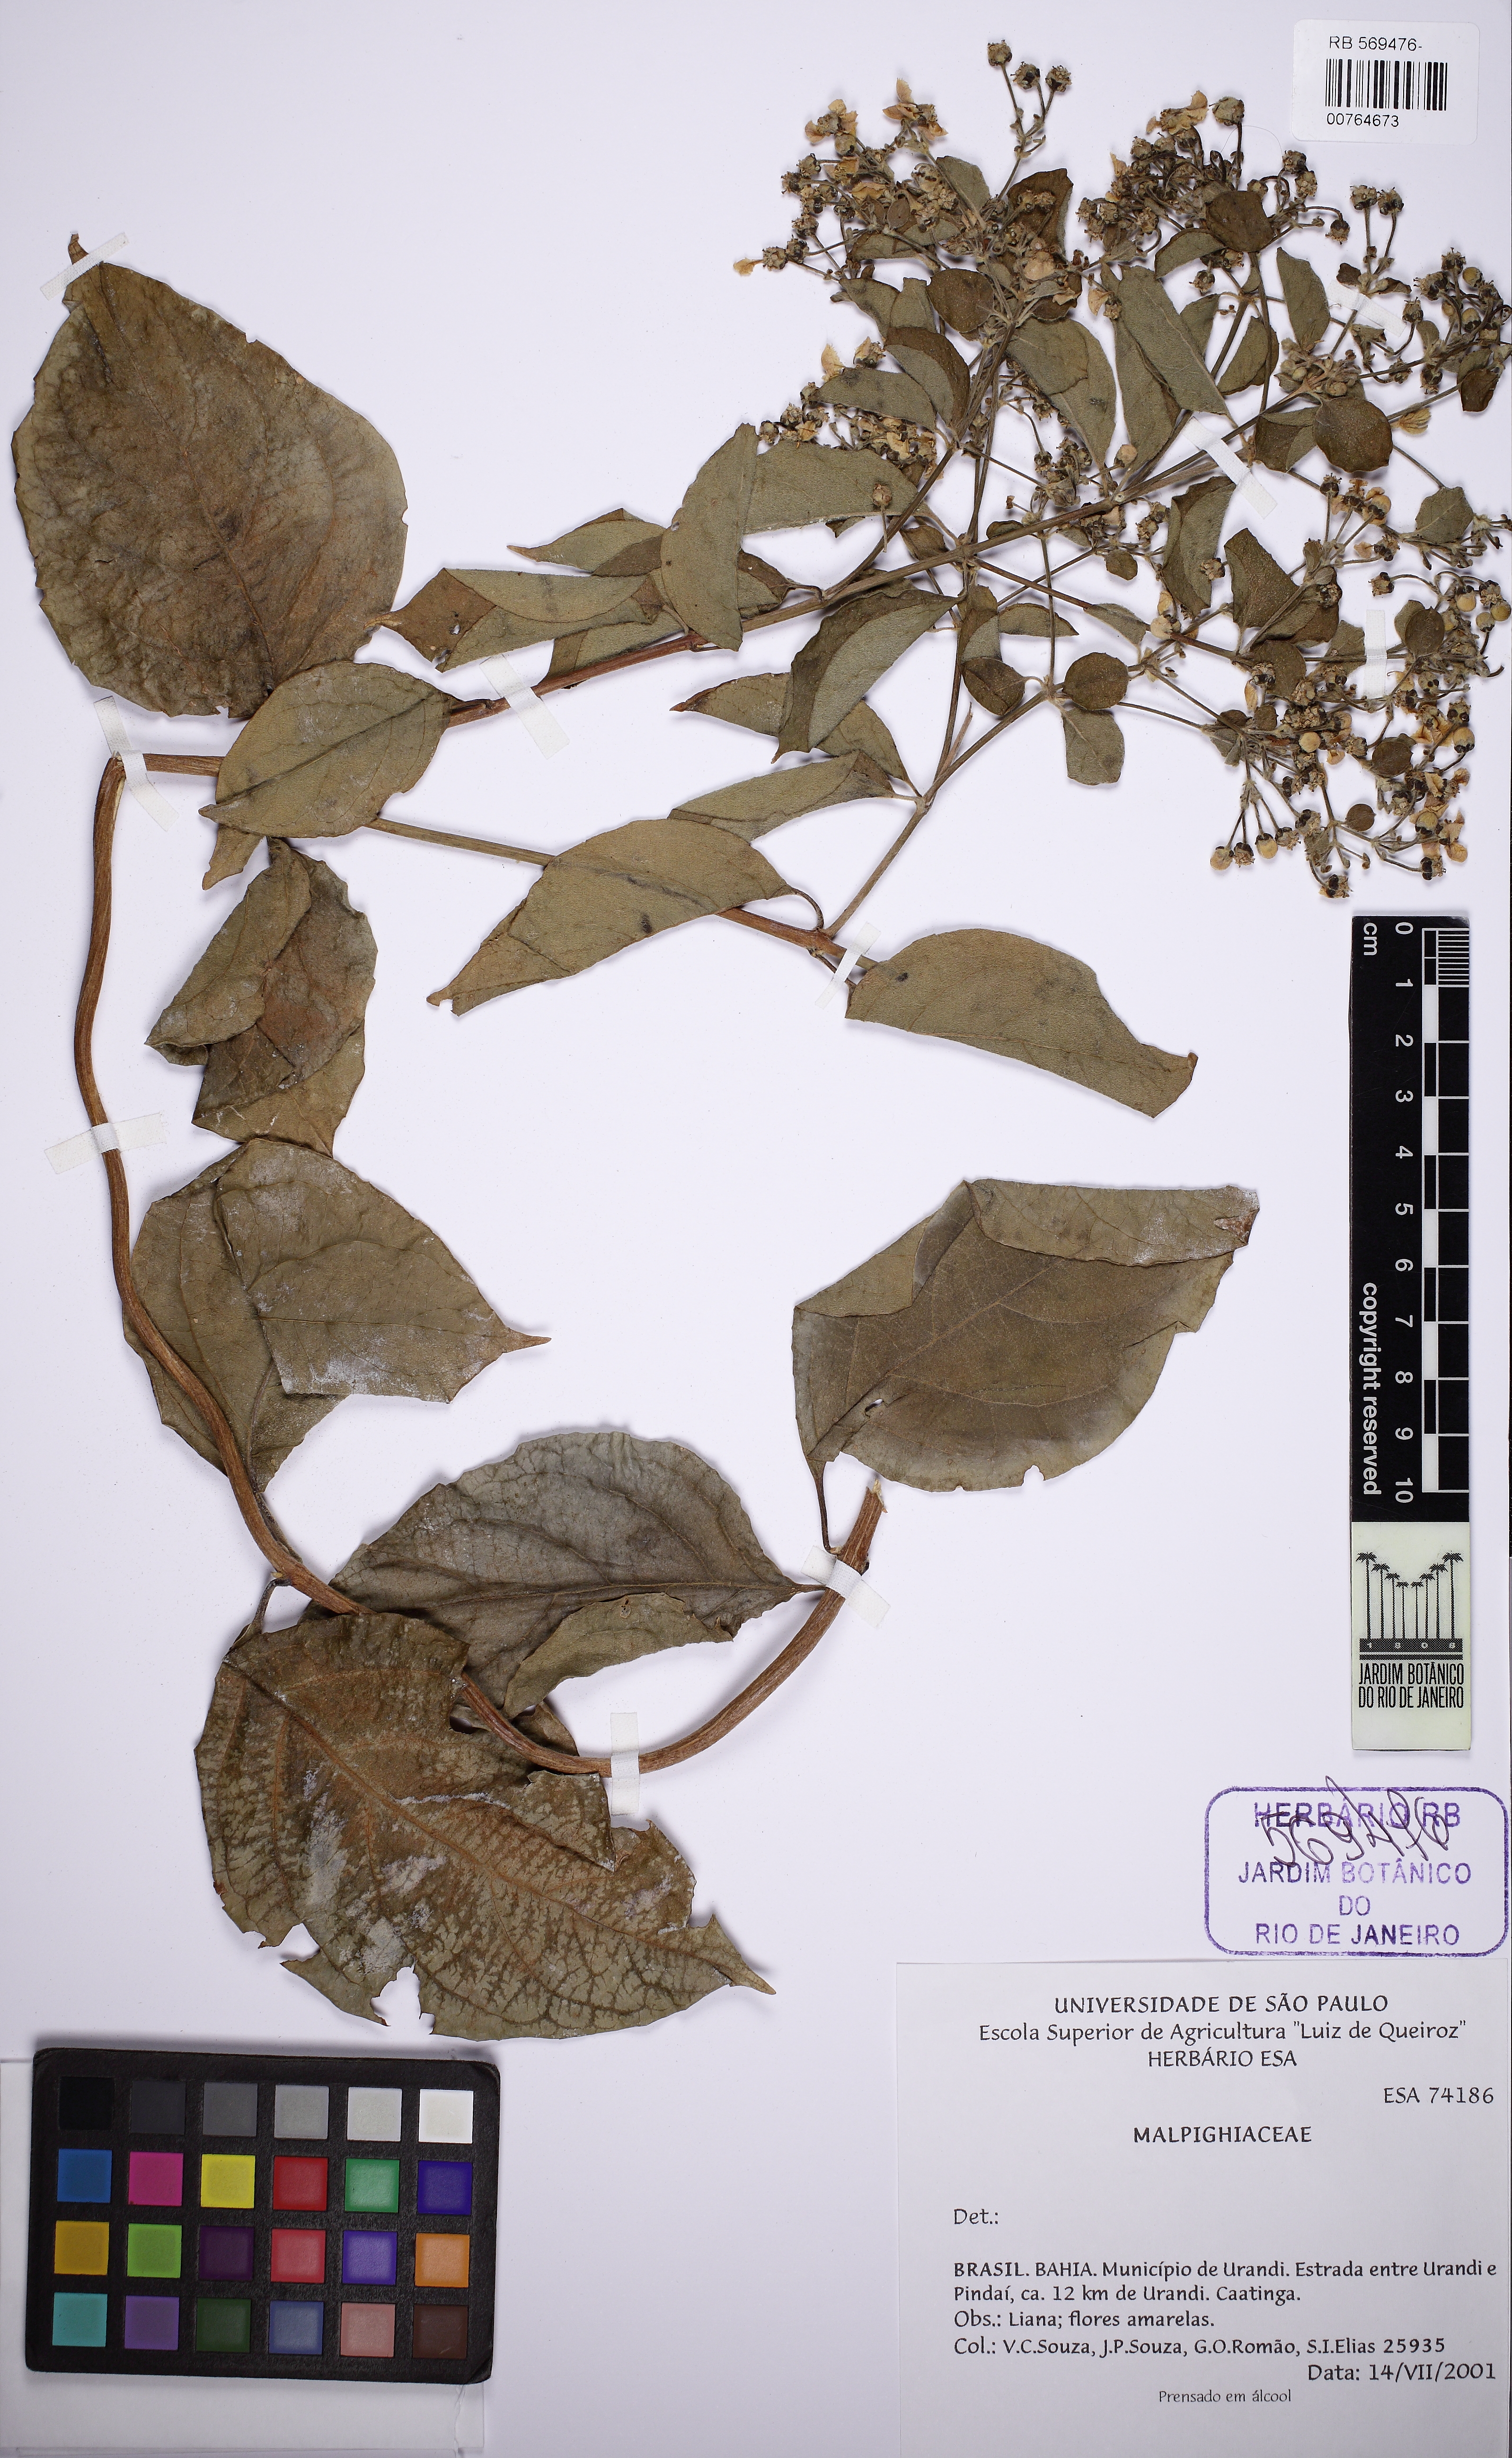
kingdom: Plantae
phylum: Tracheophyta
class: Magnoliopsida
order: Malpighiales
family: Malpighiaceae
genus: Callaeum
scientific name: Callaeum psilophyllum
